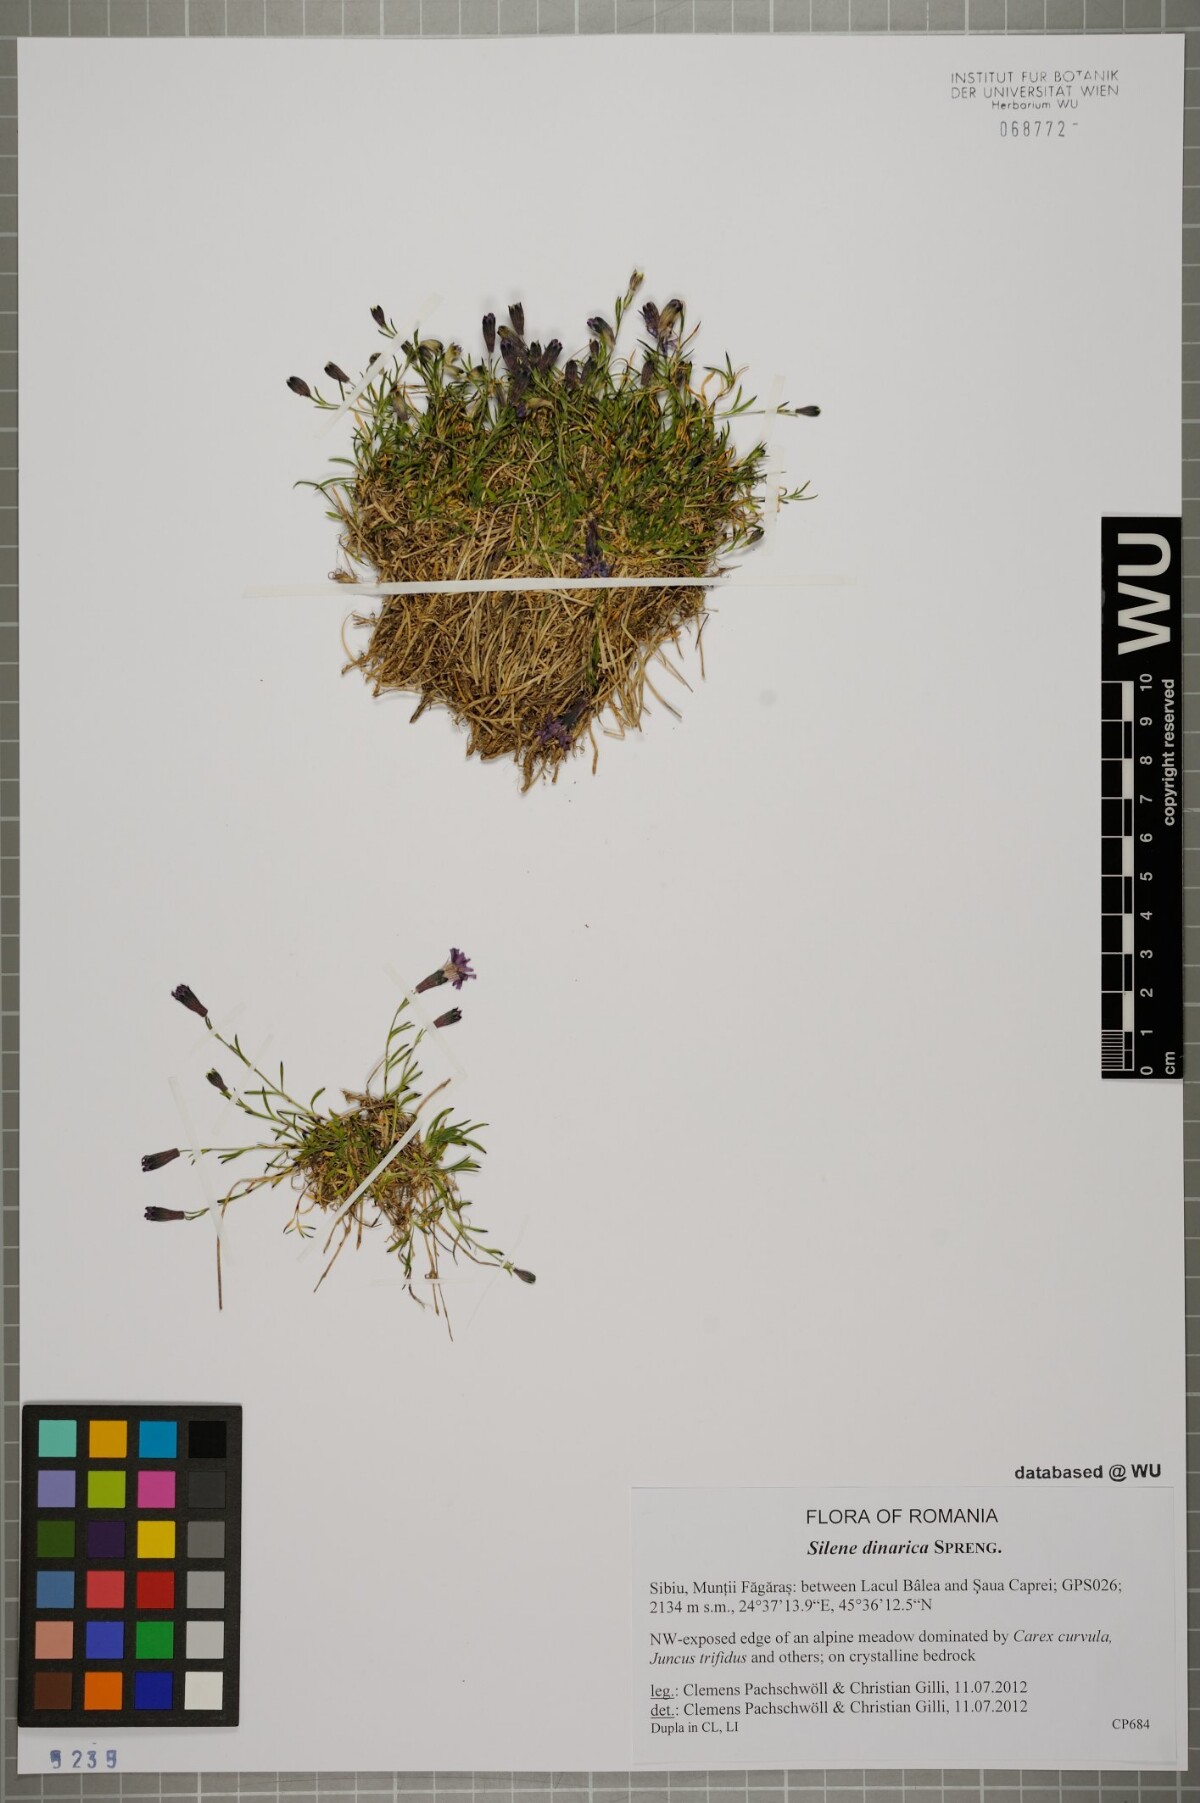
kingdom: Plantae
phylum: Tracheophyta
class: Magnoliopsida
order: Caryophyllales
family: Caryophyllaceae
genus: Silene
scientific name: Silene dinarica
